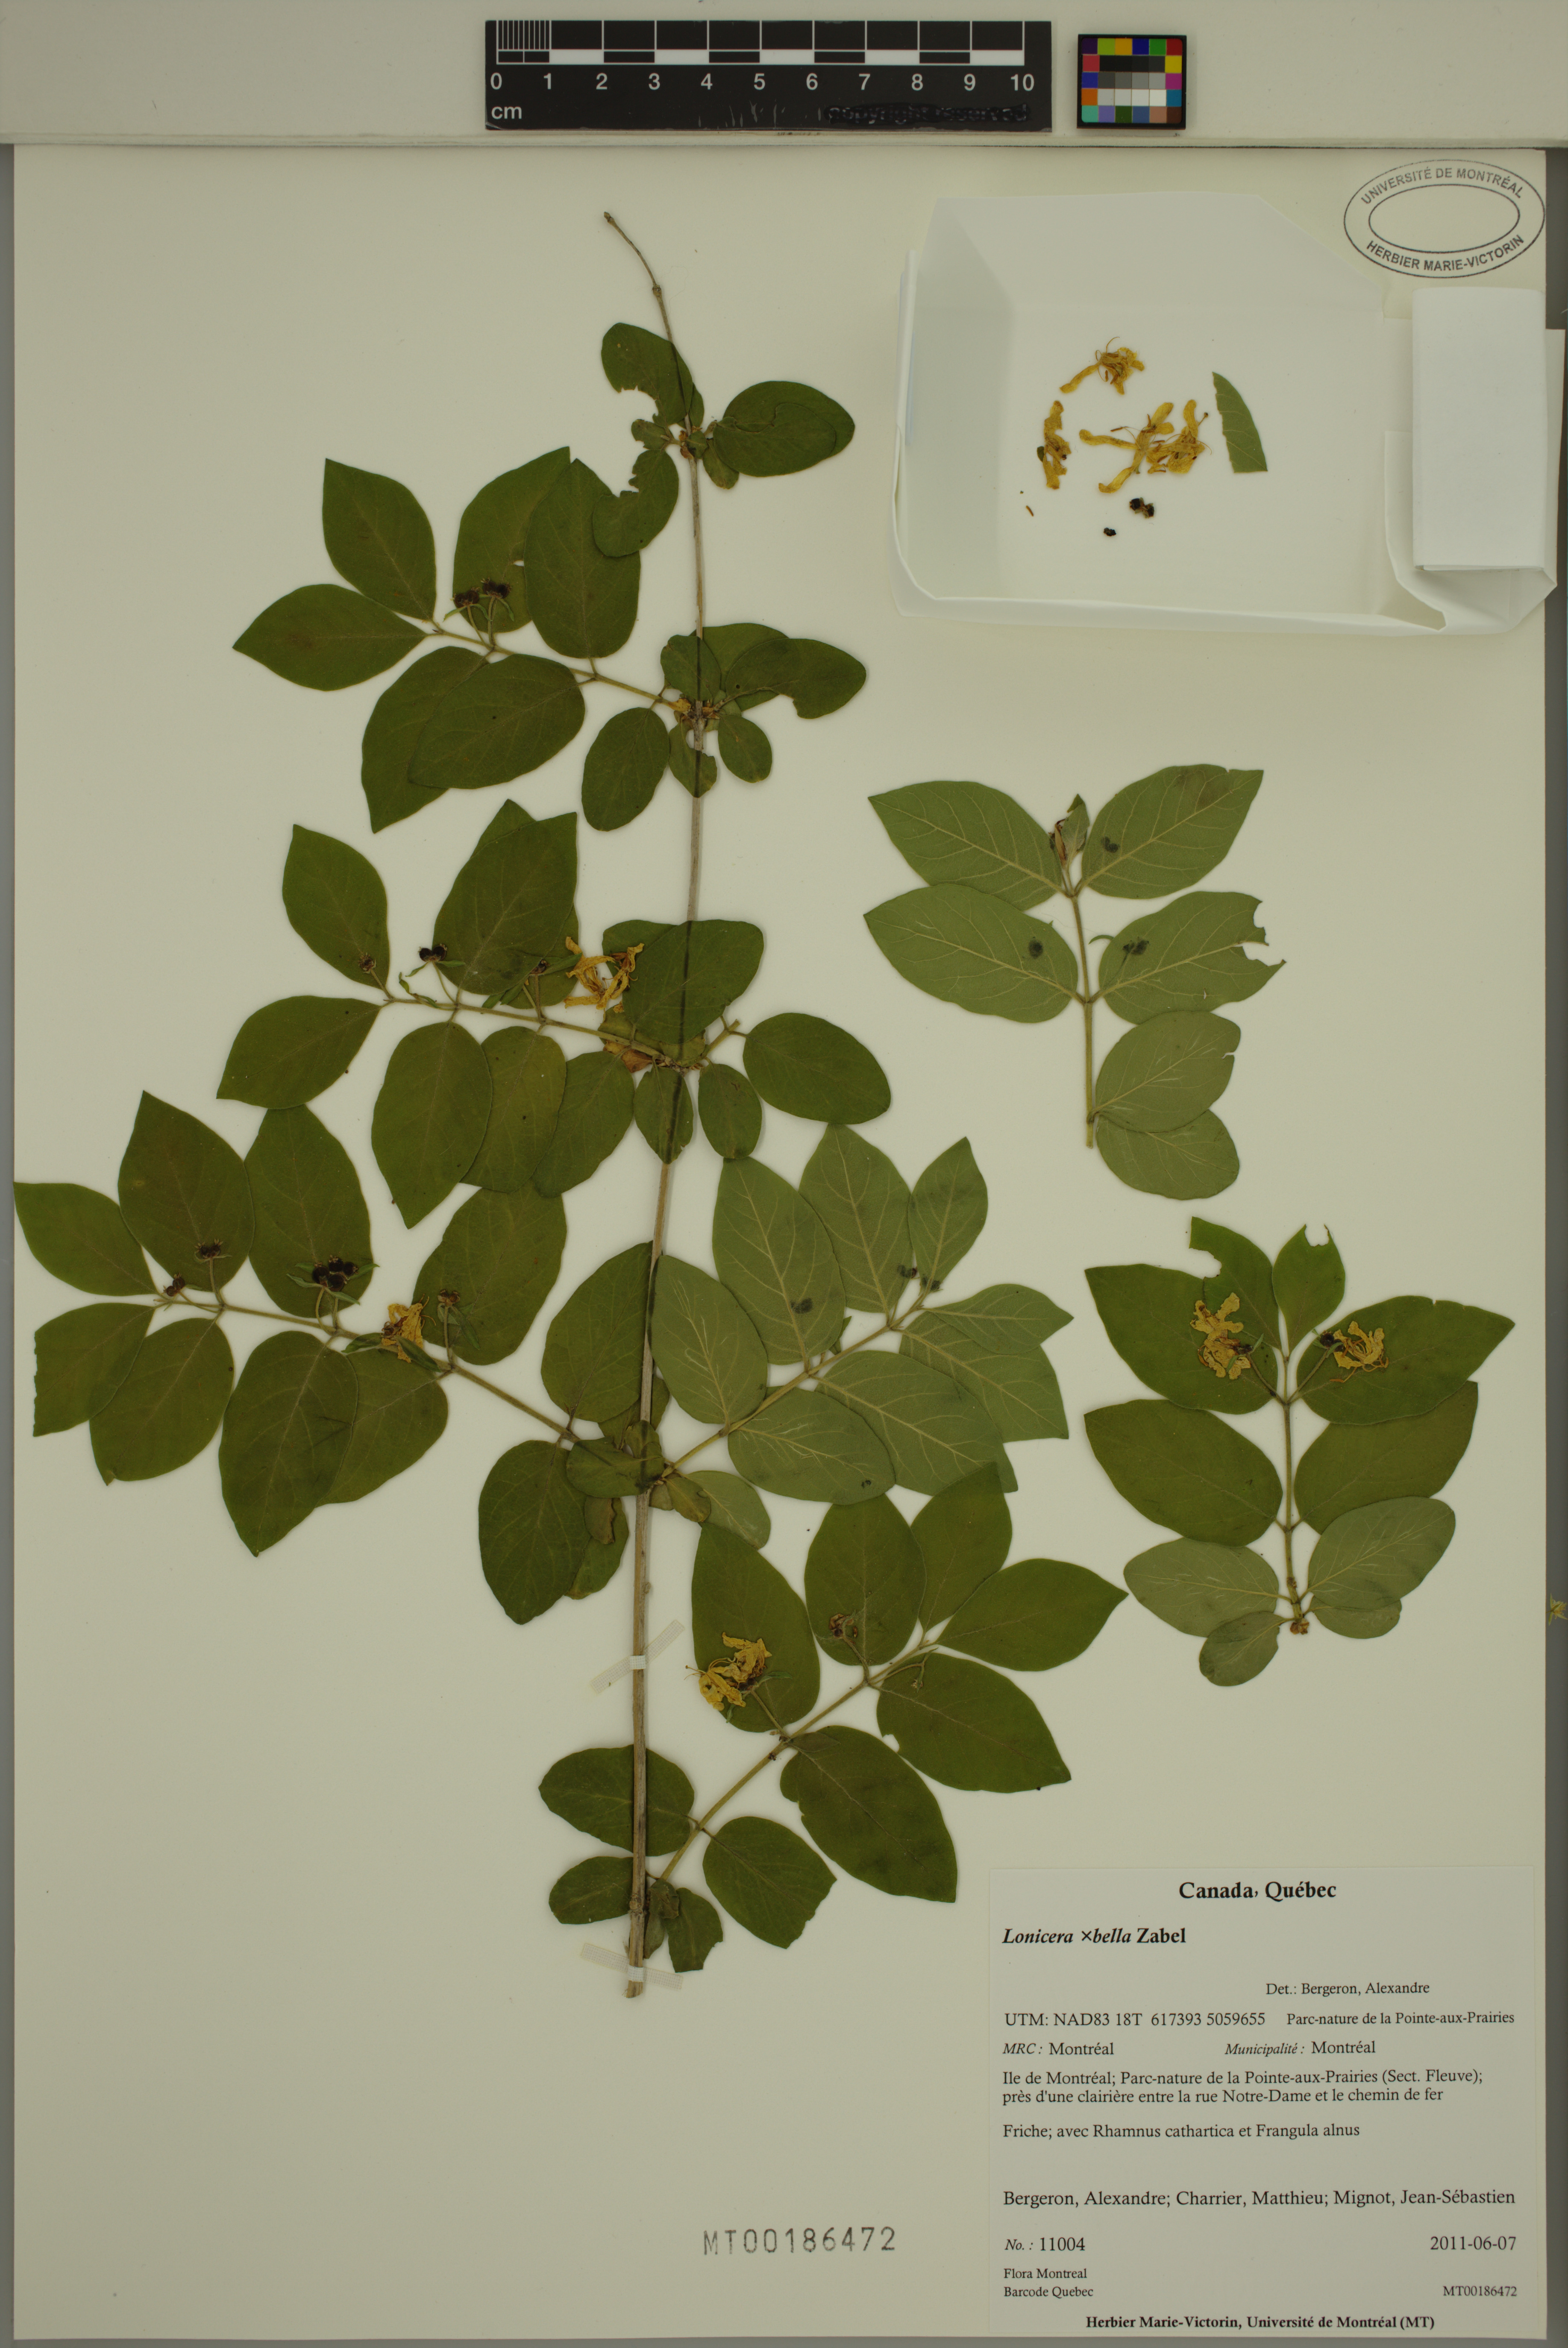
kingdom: Plantae
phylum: Tracheophyta
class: Magnoliopsida
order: Dipsacales
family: Caprifoliaceae
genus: Lonicera
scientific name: Lonicera bella
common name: Bell's honeysuckle
